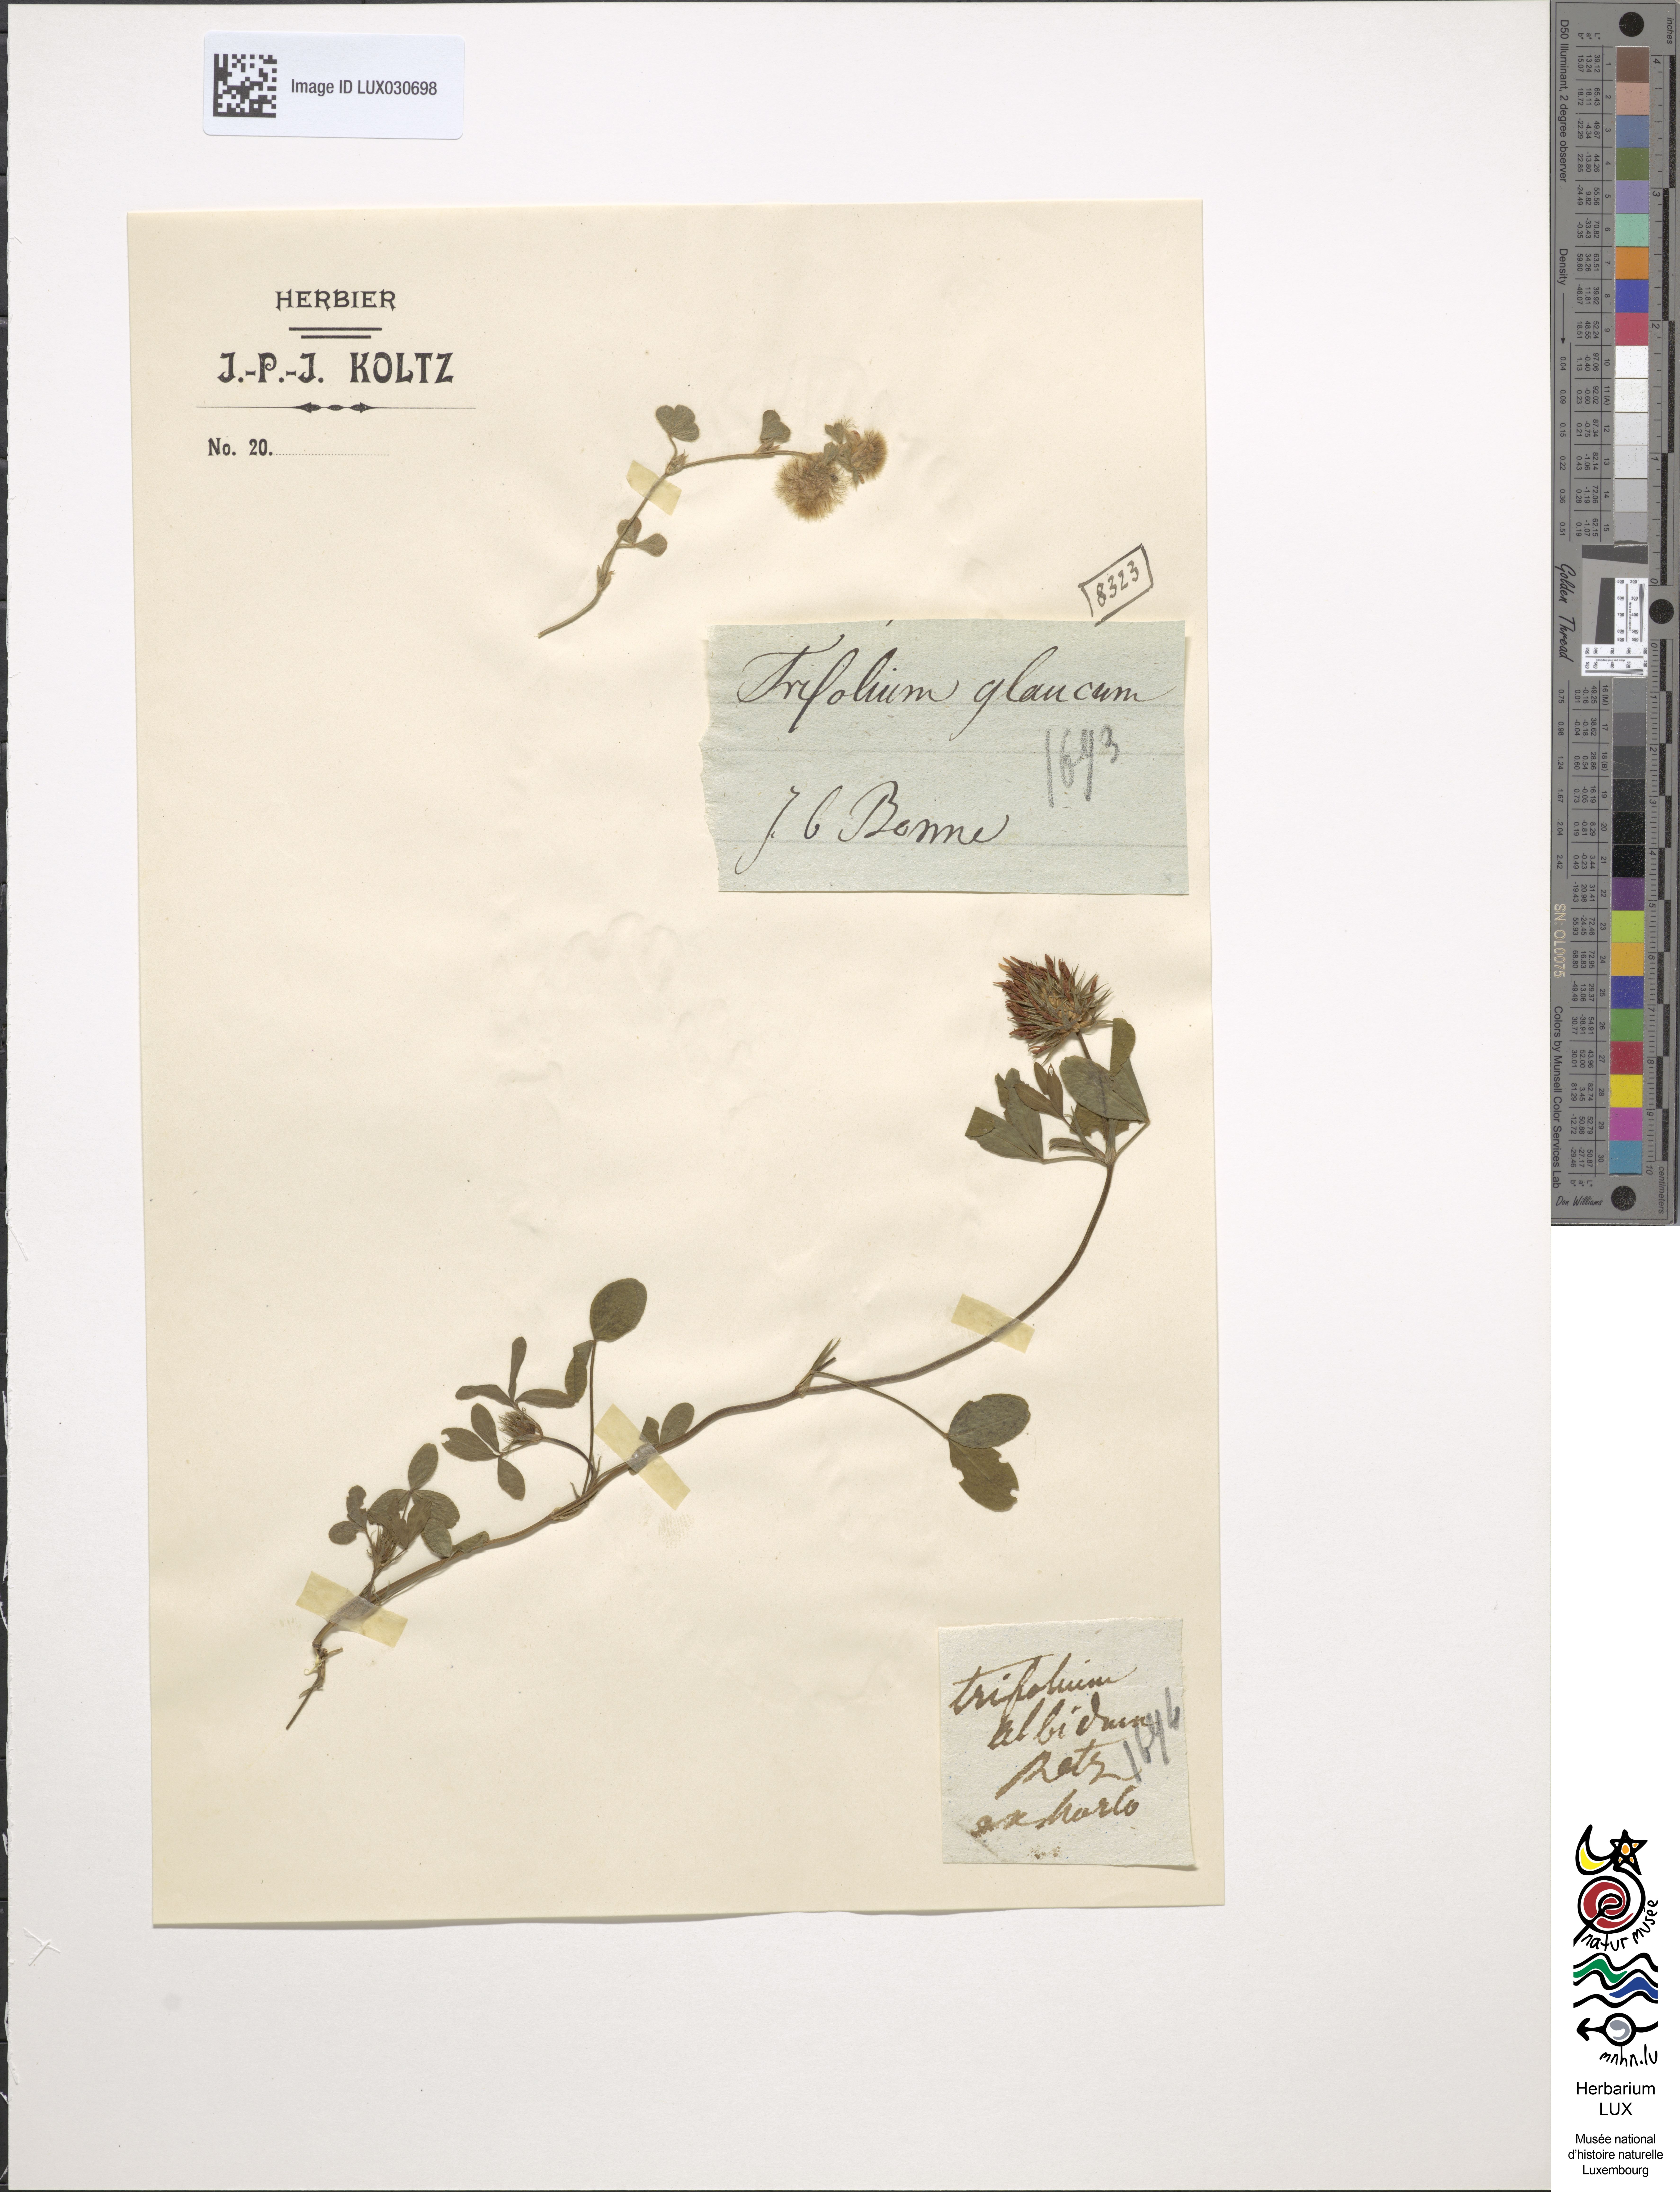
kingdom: Plantae
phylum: Tracheophyta
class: Magnoliopsida
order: Fabales
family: Fabaceae
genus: Trifolium
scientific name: Trifolium campestre
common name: Field clover
